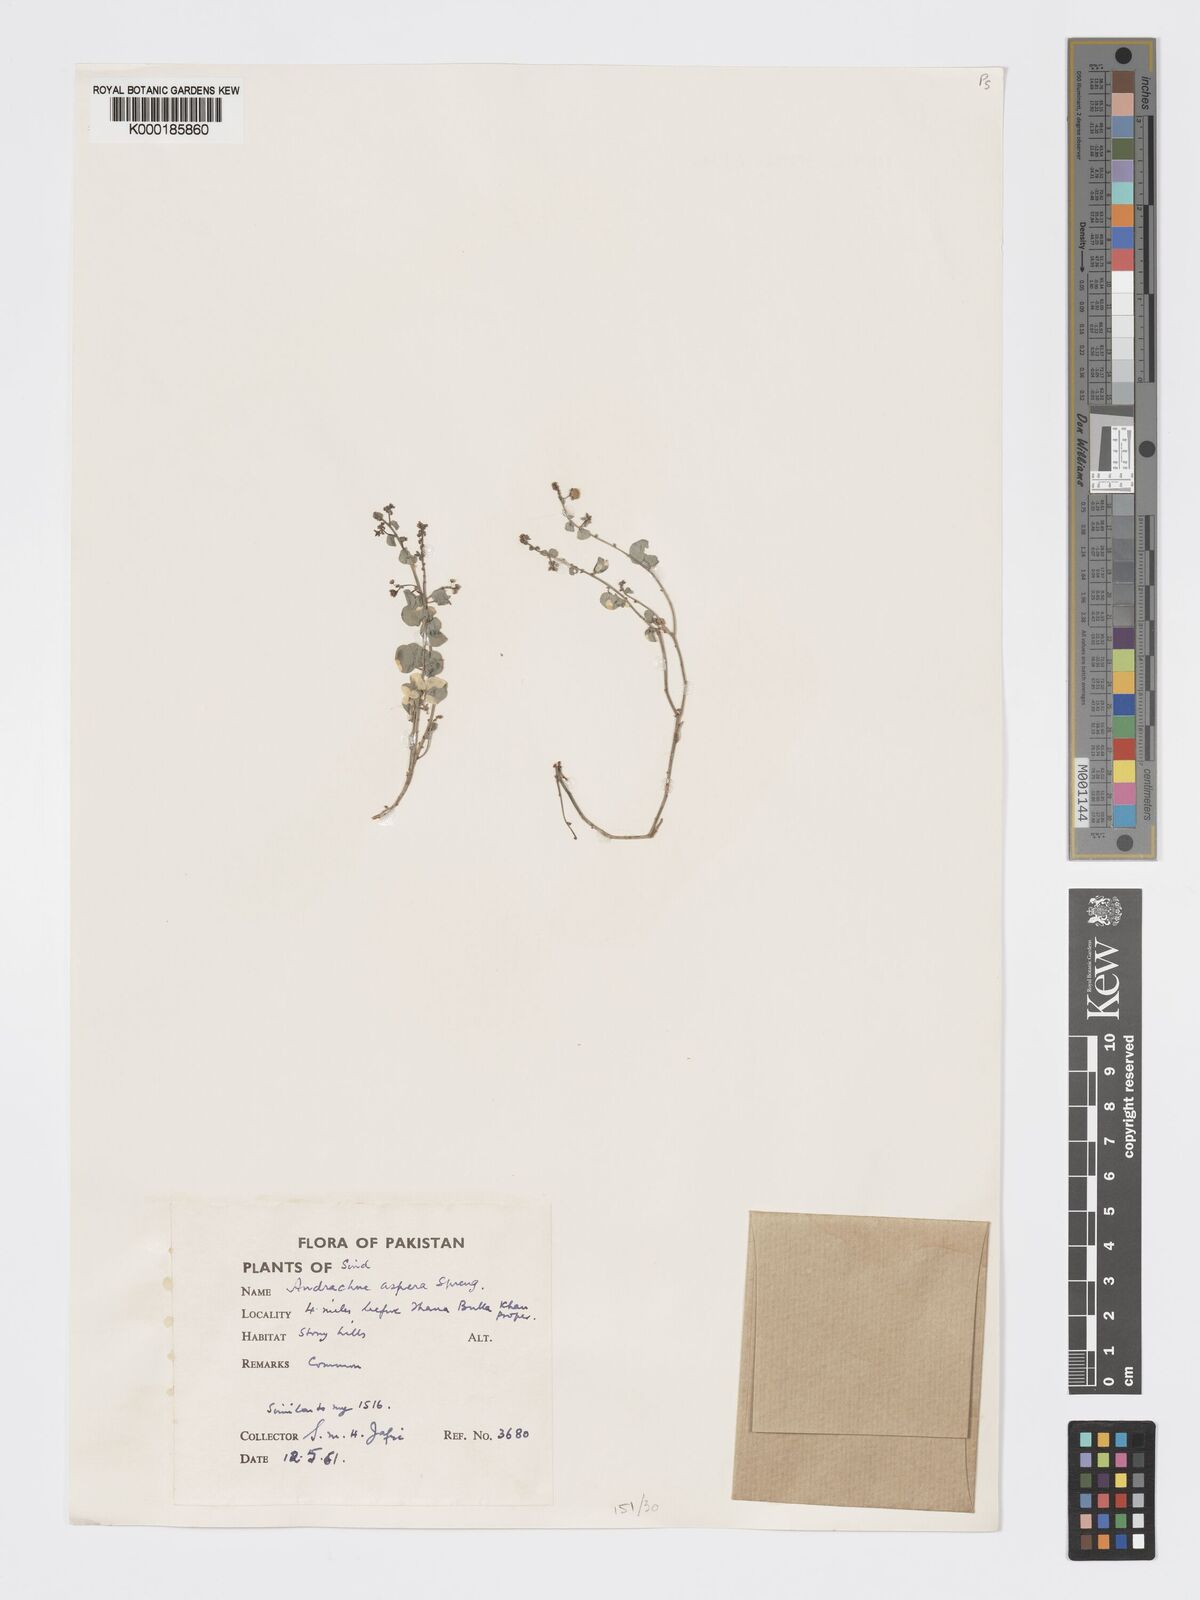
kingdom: Plantae
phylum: Tracheophyta
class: Magnoliopsida
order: Malpighiales
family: Phyllanthaceae
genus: Andrachne
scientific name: Andrachne aspera
